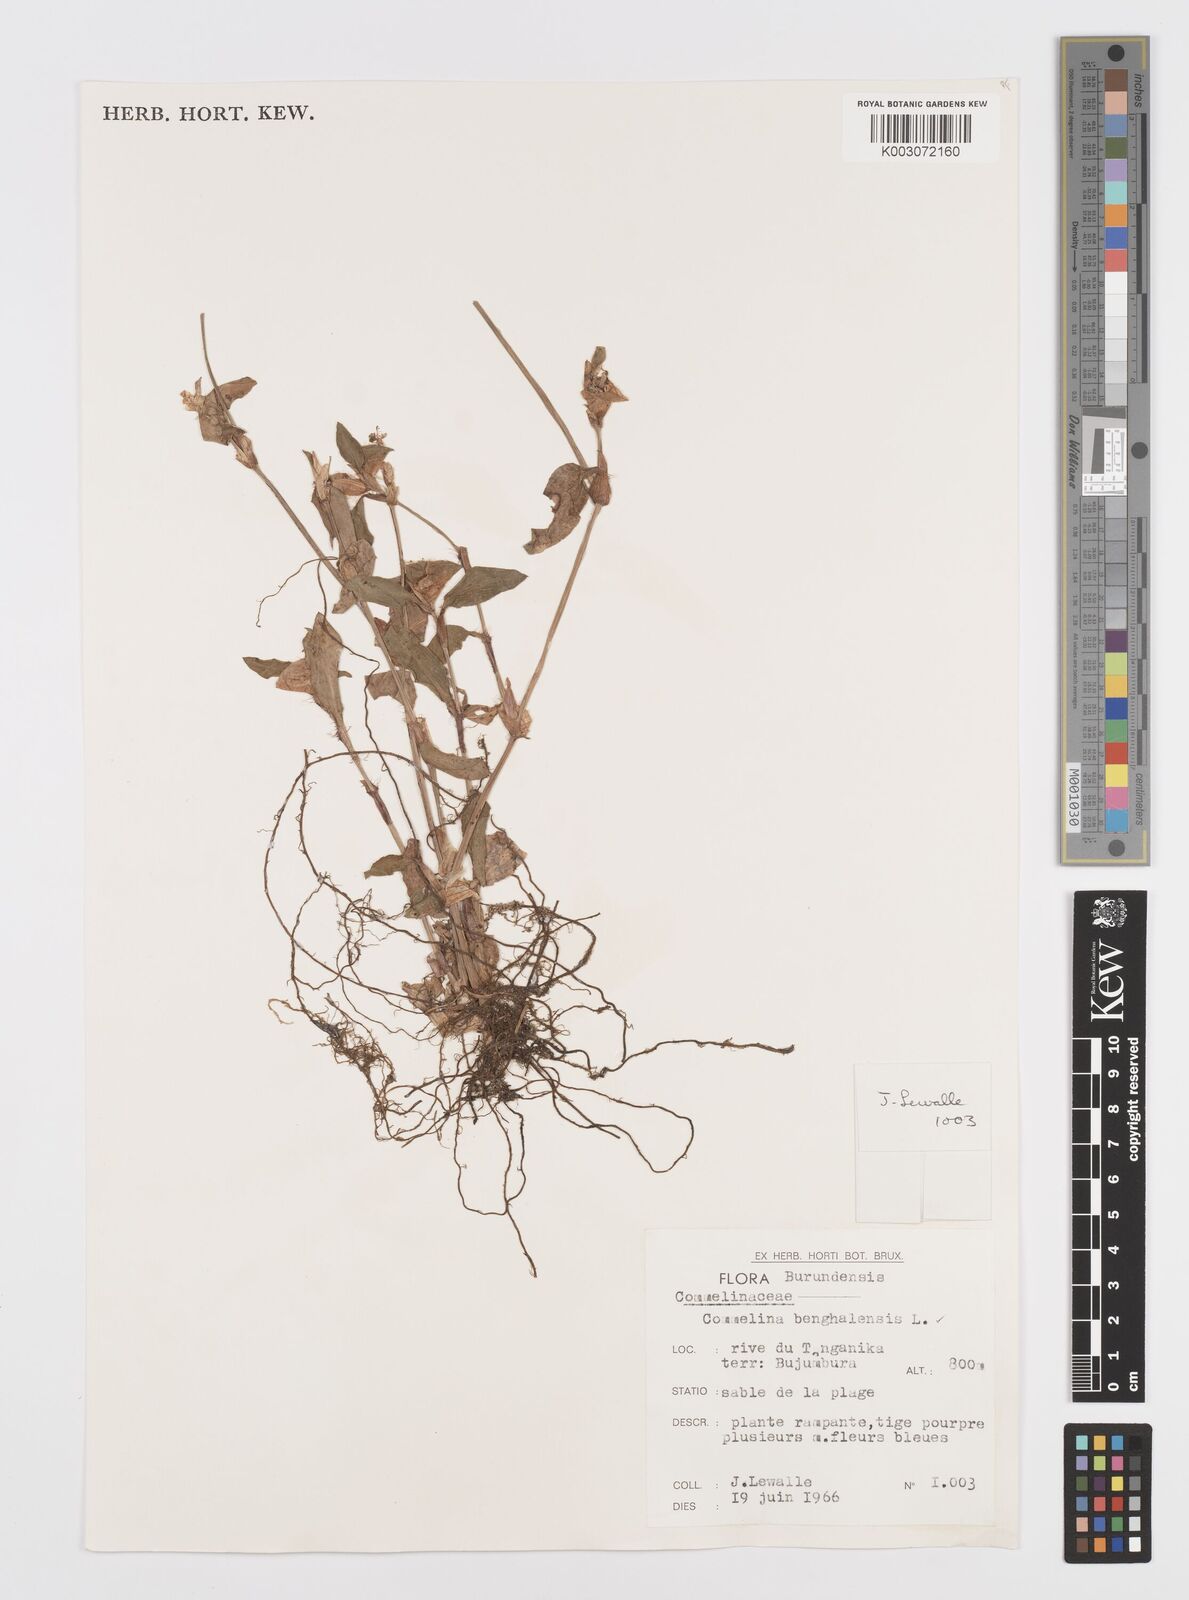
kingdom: Plantae
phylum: Tracheophyta
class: Liliopsida
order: Commelinales
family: Commelinaceae
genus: Commelina
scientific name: Commelina benghalensis
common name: Jio
